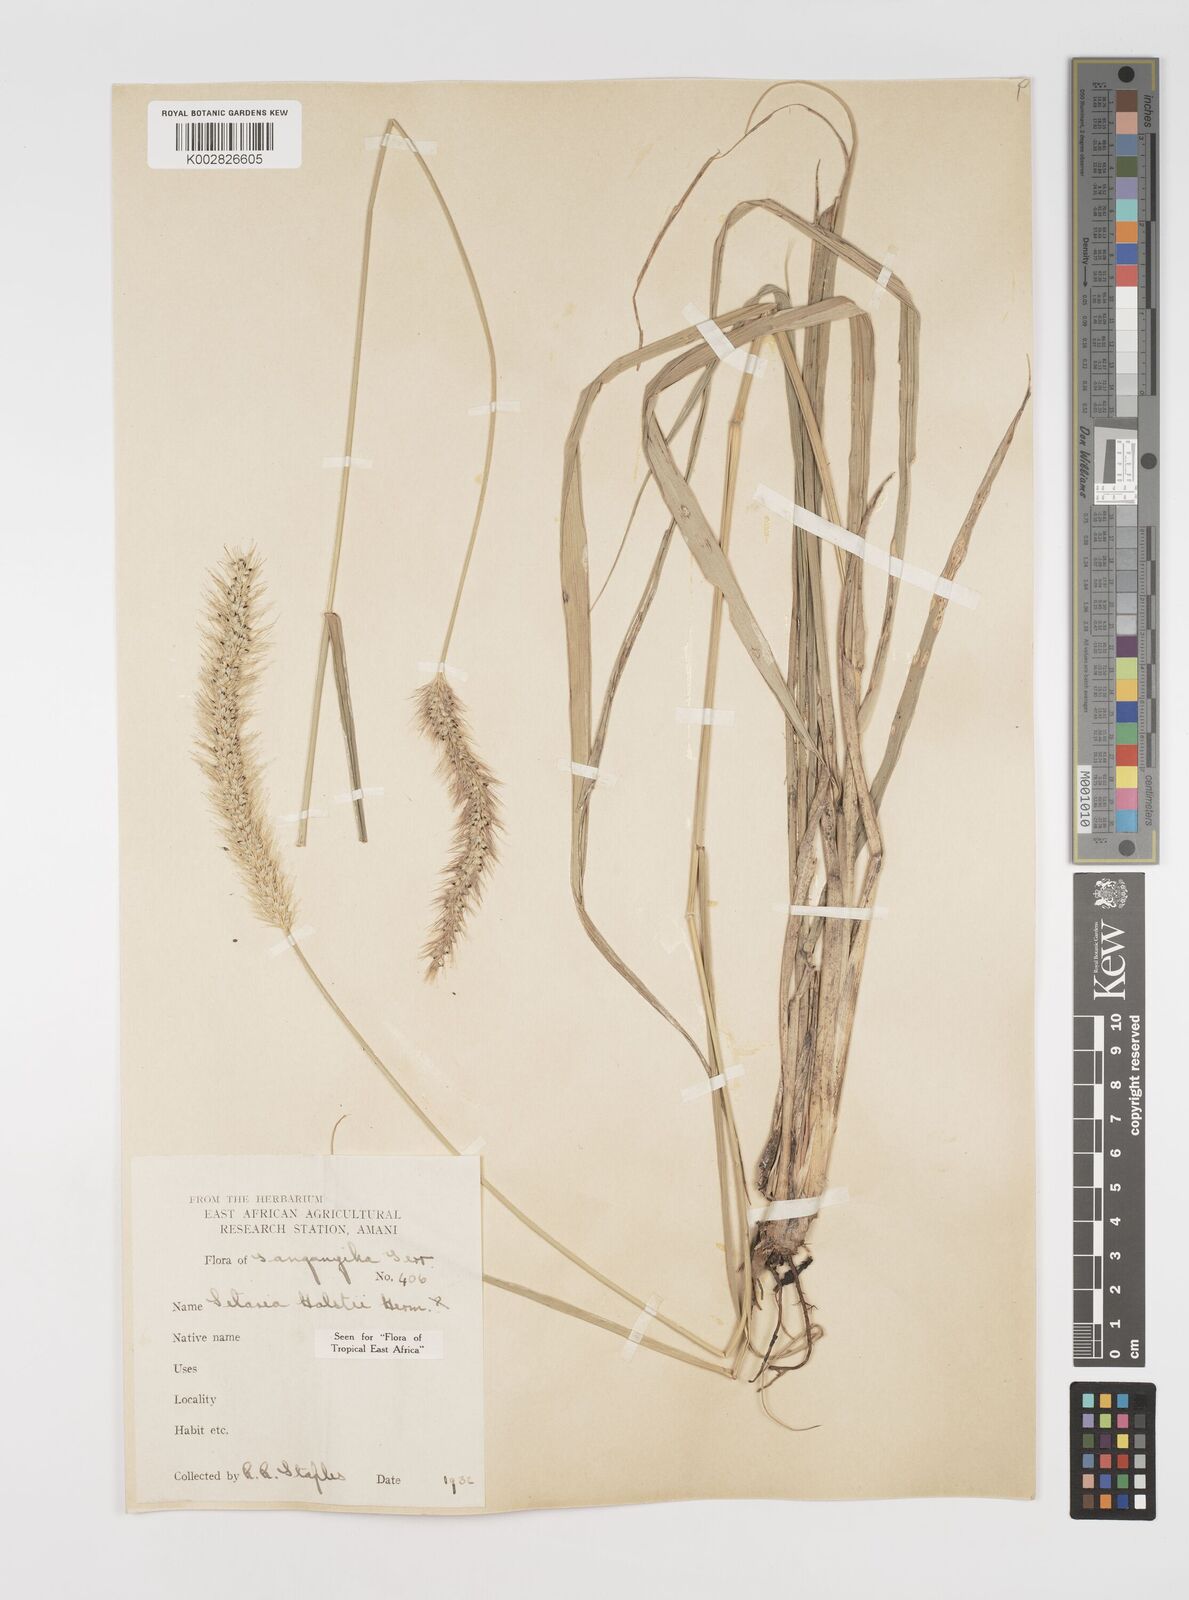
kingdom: Plantae
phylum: Tracheophyta
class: Liliopsida
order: Poales
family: Poaceae
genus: Setaria
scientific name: Setaria incrassata
